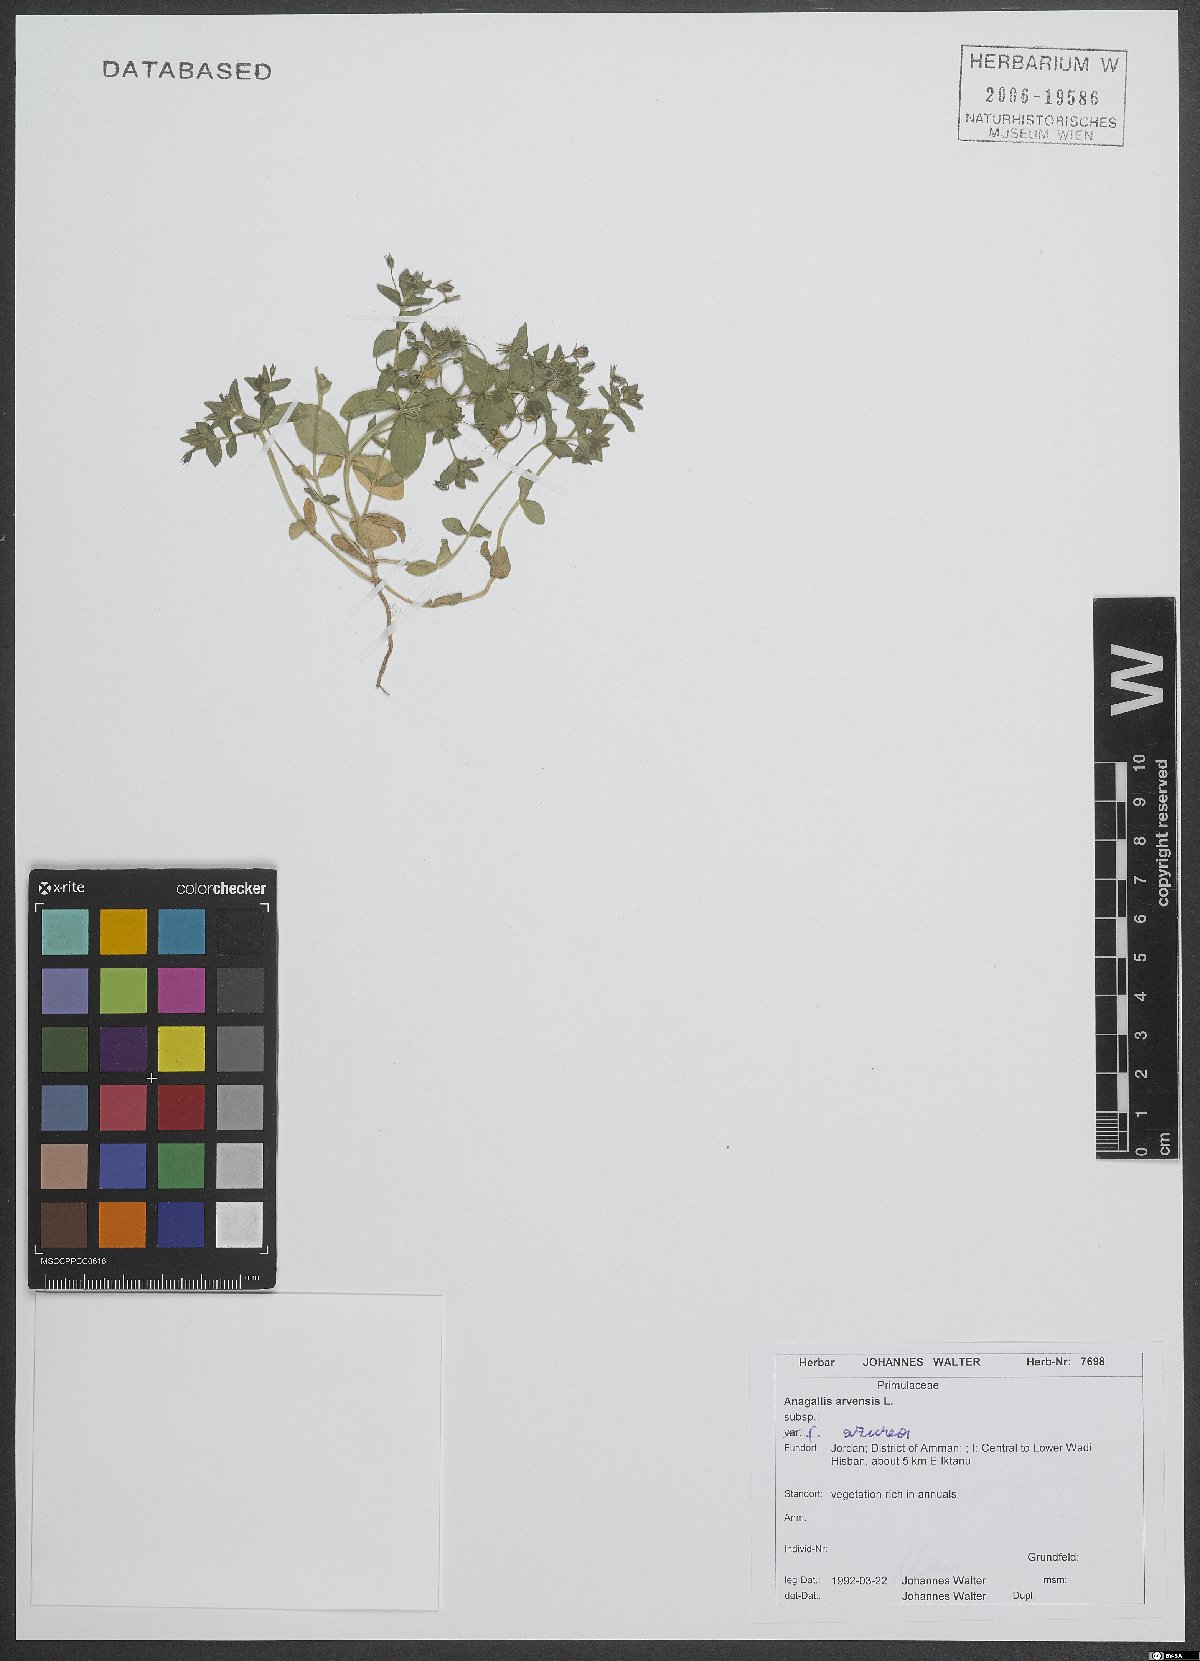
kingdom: Plantae
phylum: Tracheophyta
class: Magnoliopsida
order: Ericales
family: Primulaceae
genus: Lysimachia
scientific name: Lysimachia loeflingii
